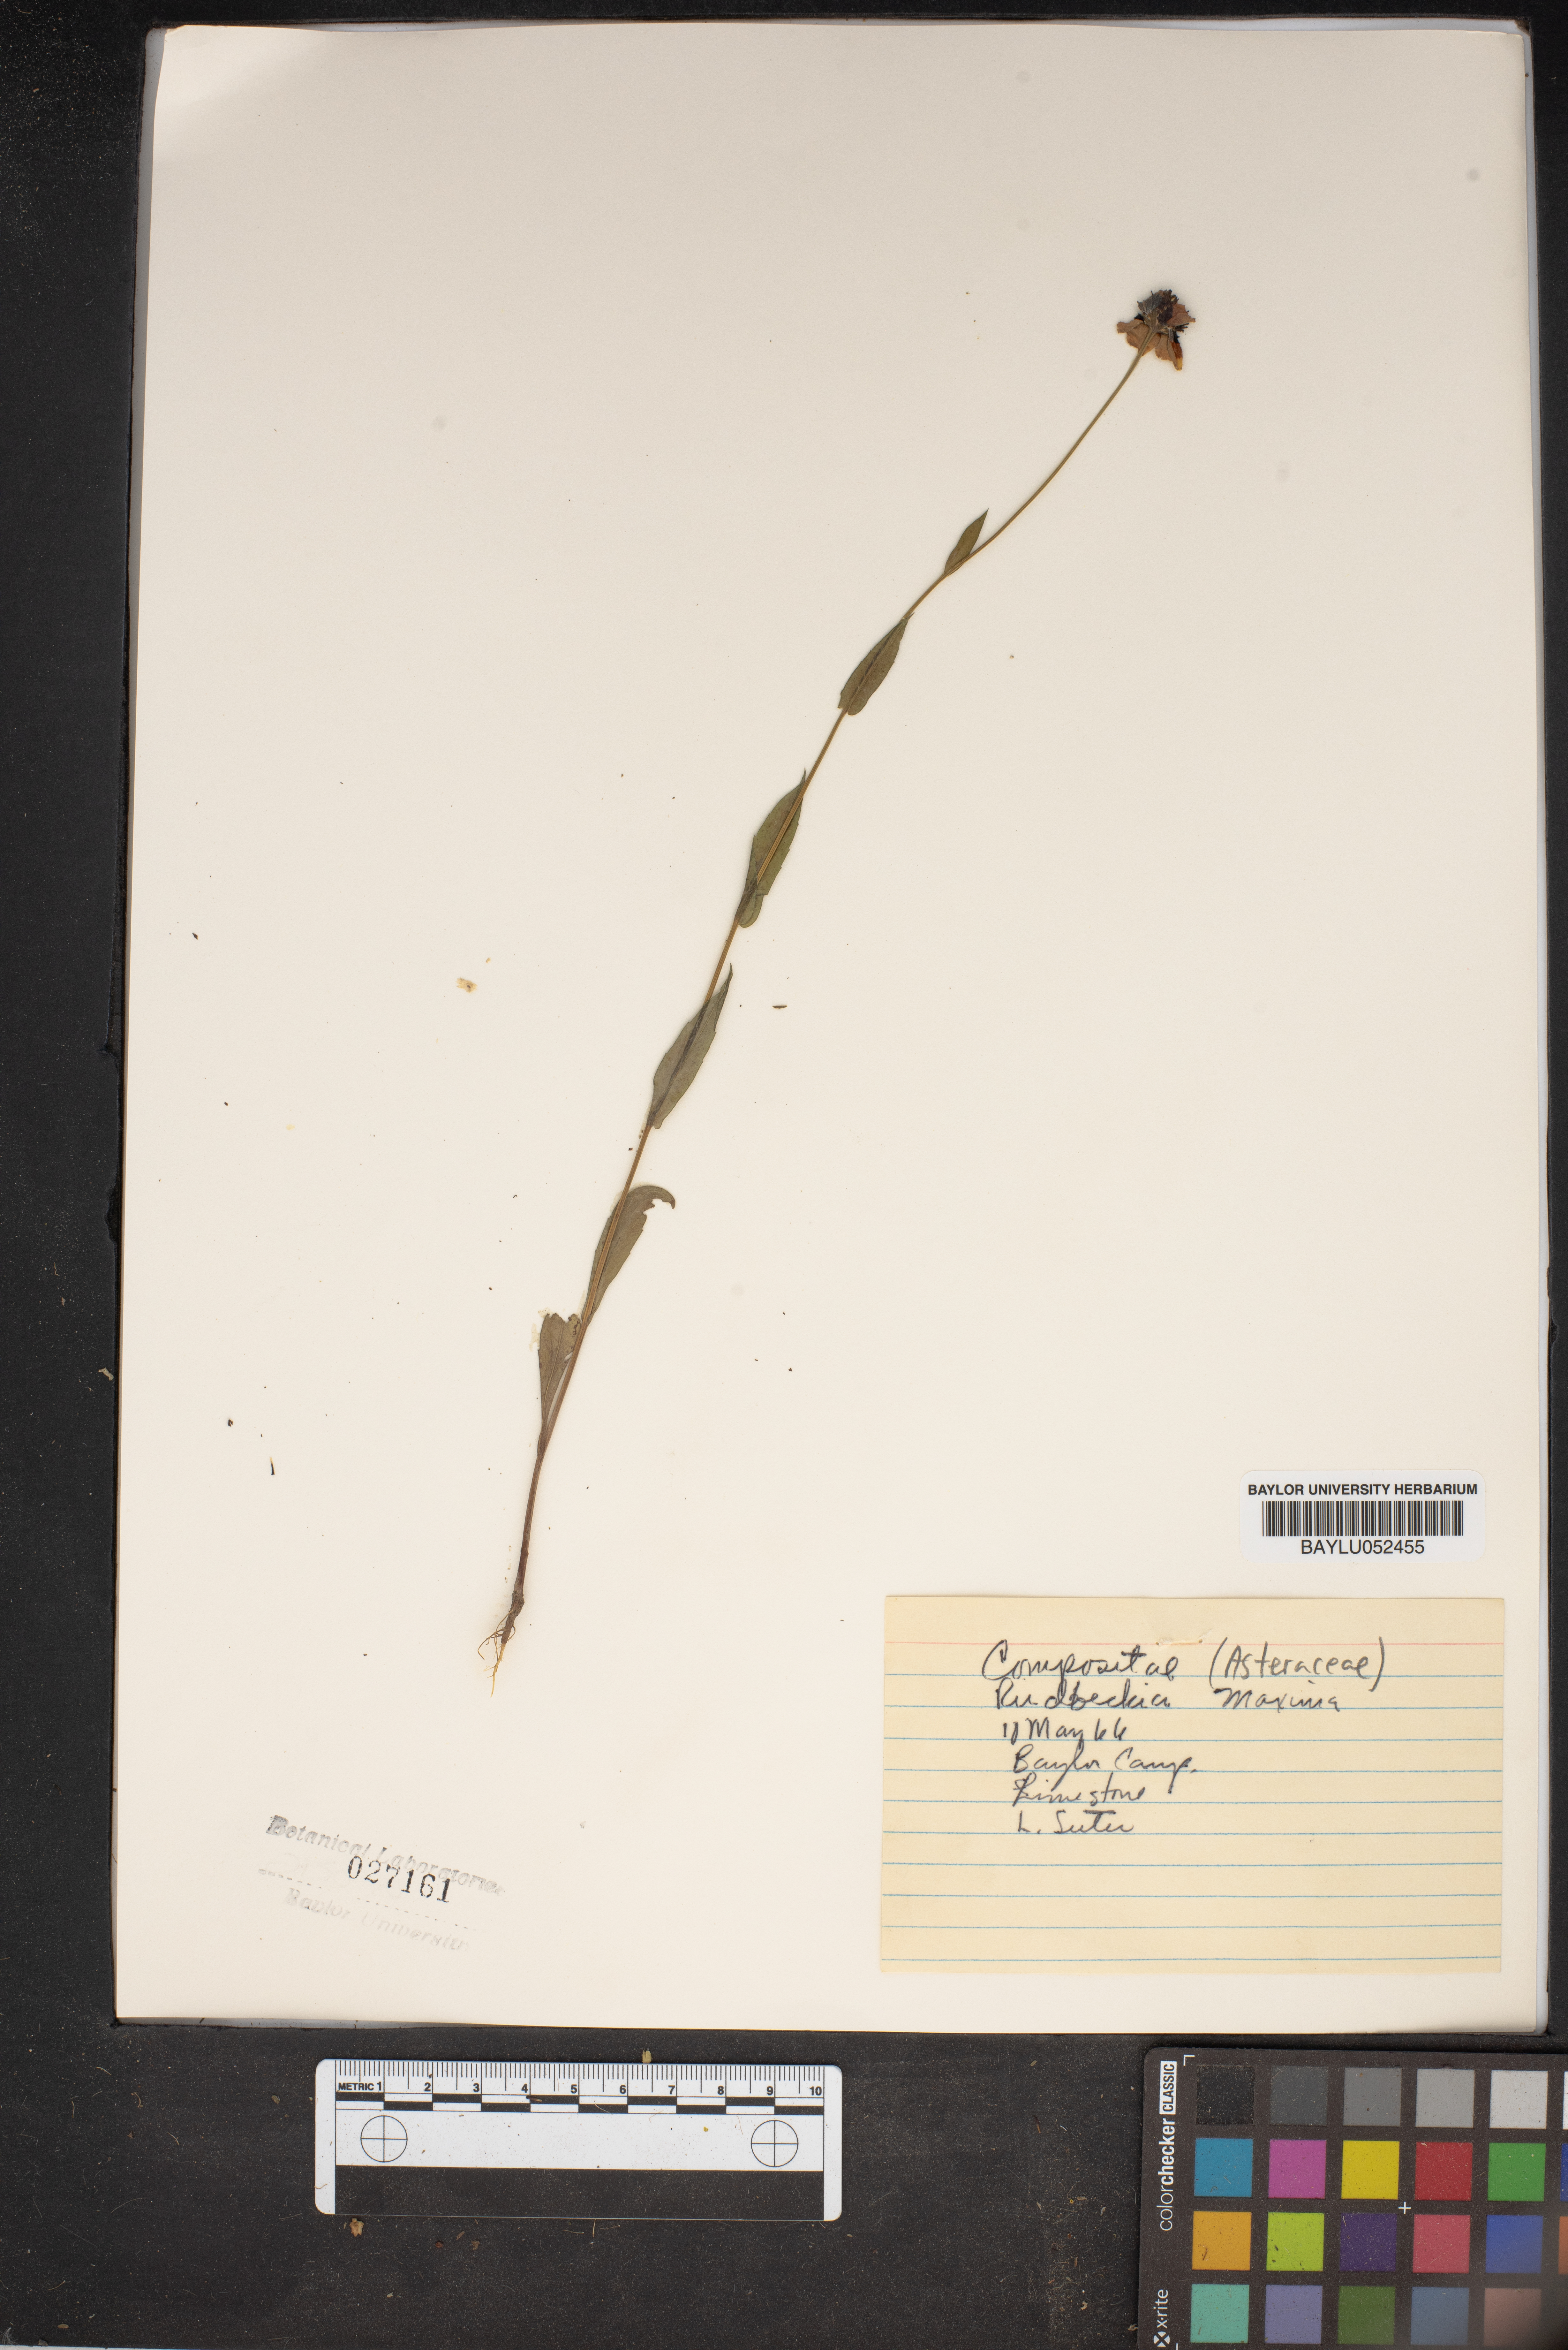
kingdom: Plantae
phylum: Tracheophyta
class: Magnoliopsida
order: Asterales
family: Asteraceae
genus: Rudbeckia
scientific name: Rudbeckia maxima
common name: Cabbage coneflower
